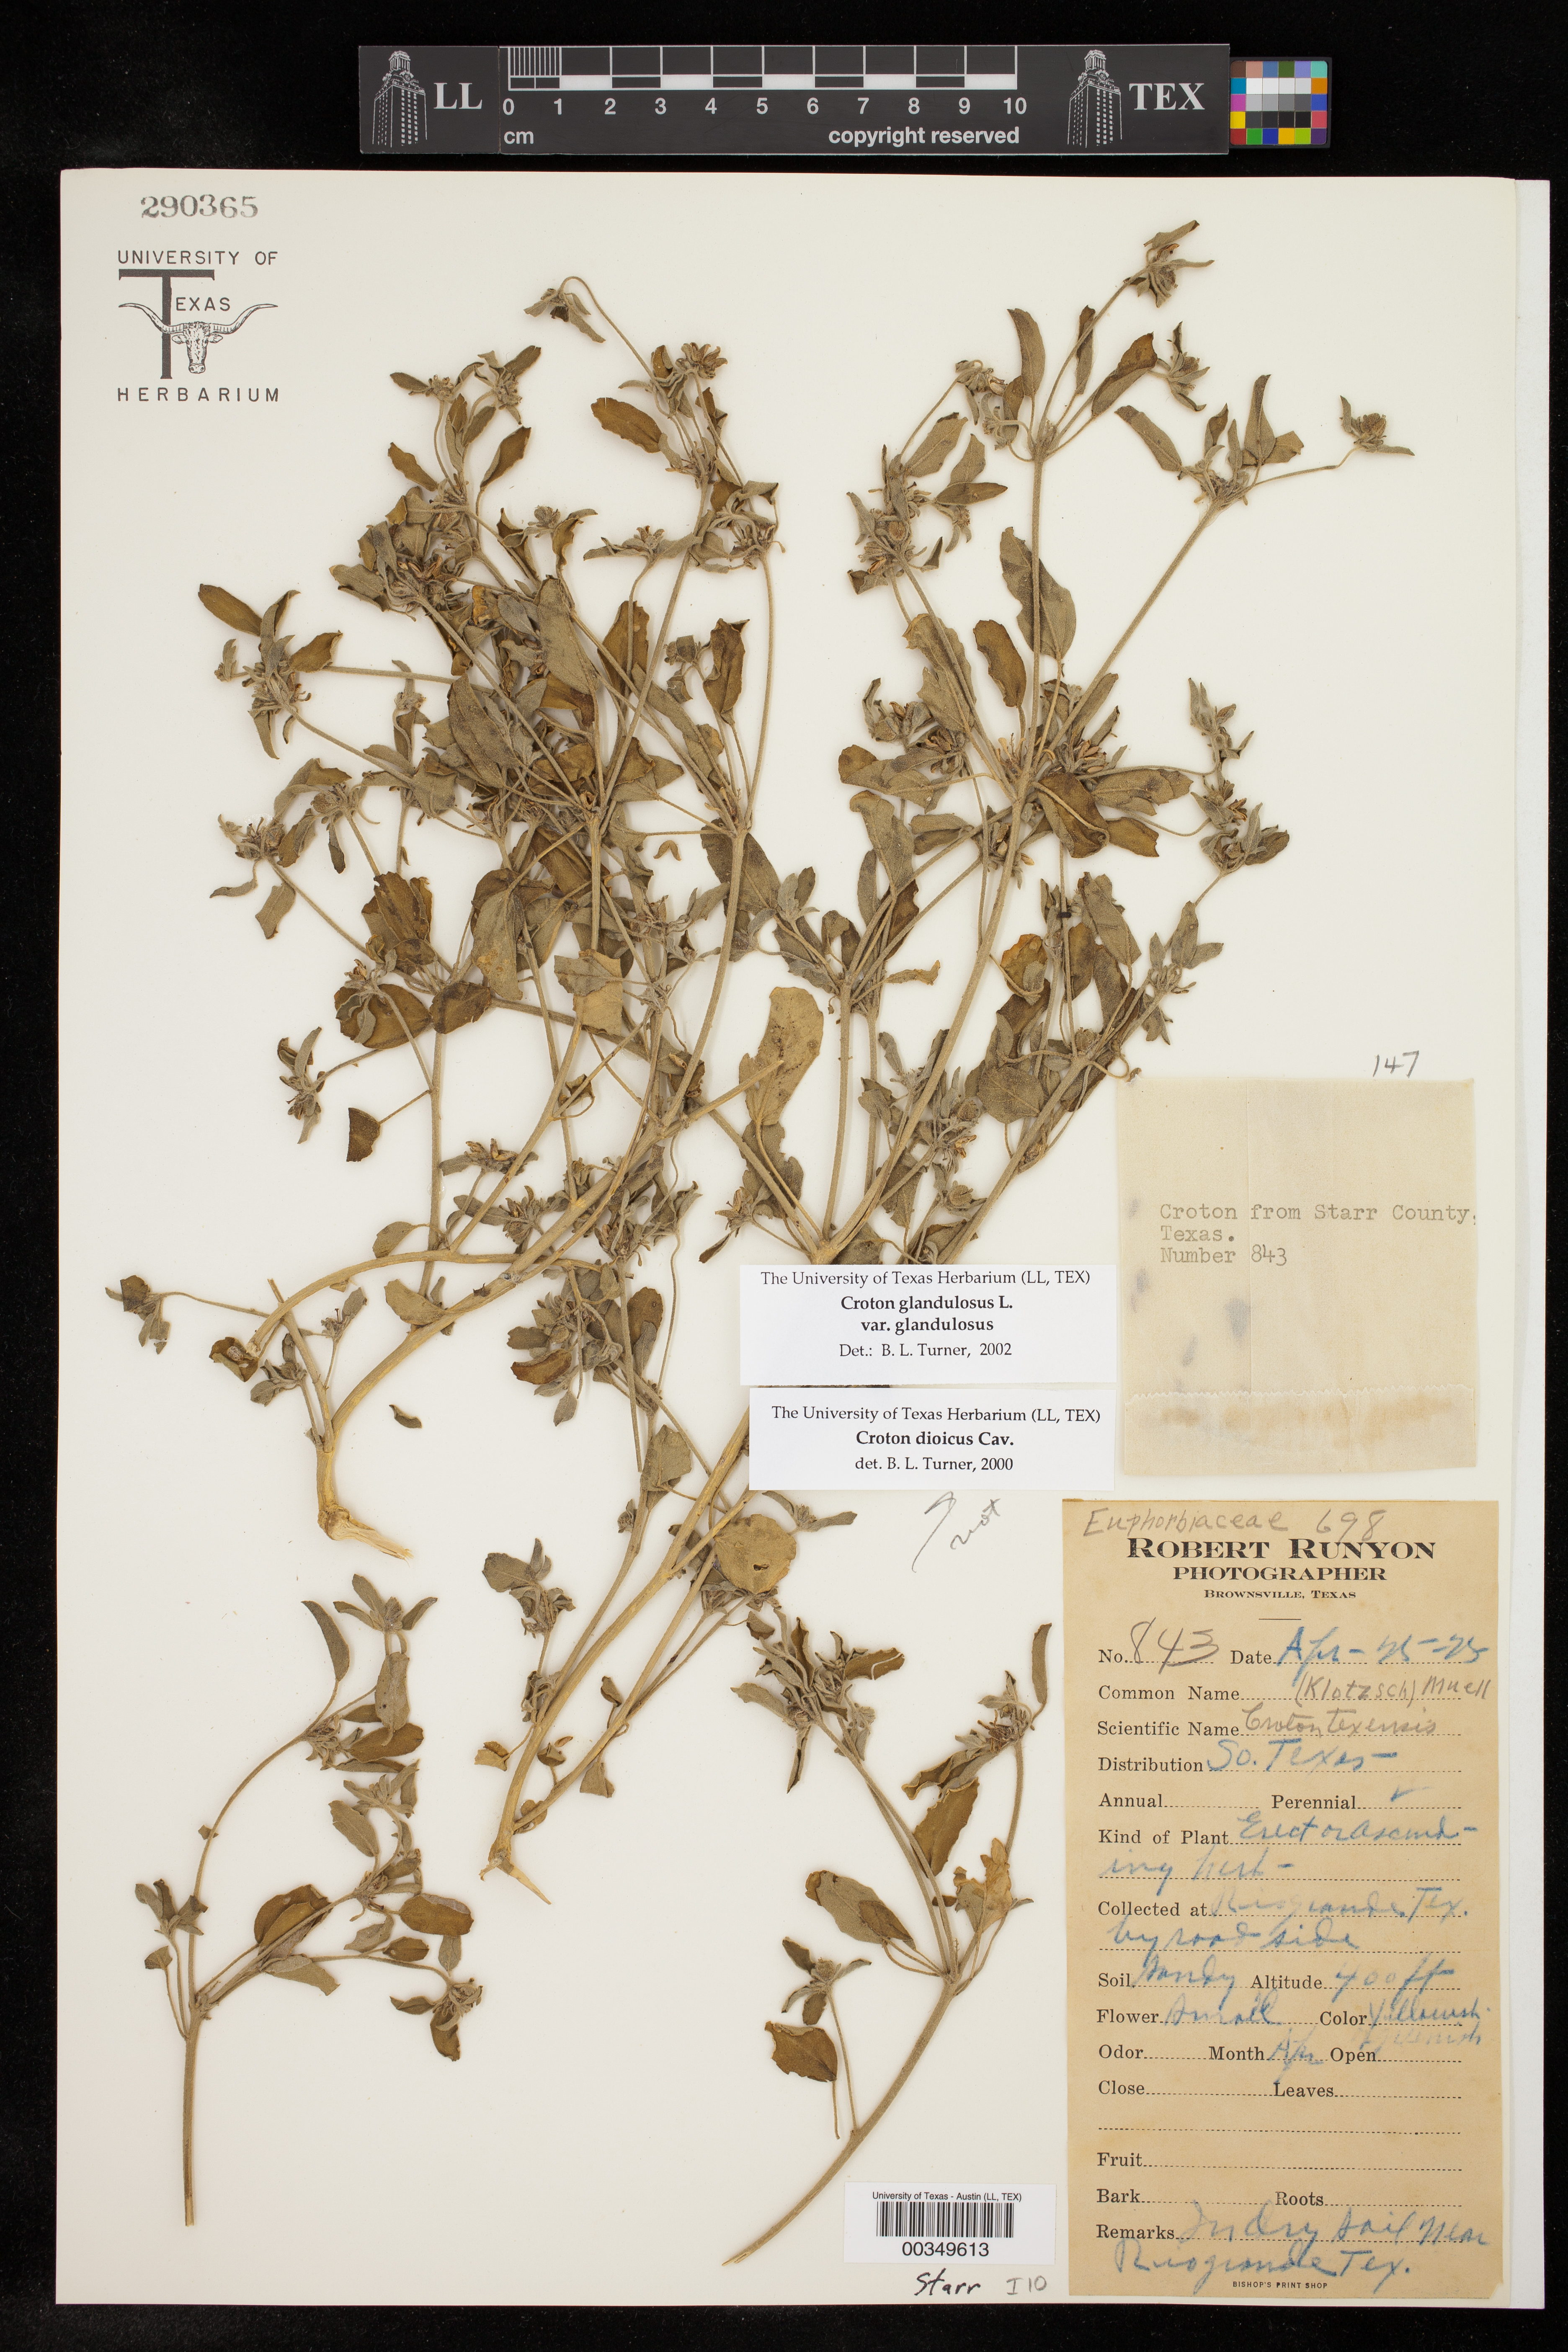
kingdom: Plantae
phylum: Tracheophyta
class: Magnoliopsida
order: Malpighiales
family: Euphorbiaceae
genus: Croton
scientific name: Croton glandulosus
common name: Tropic croton
